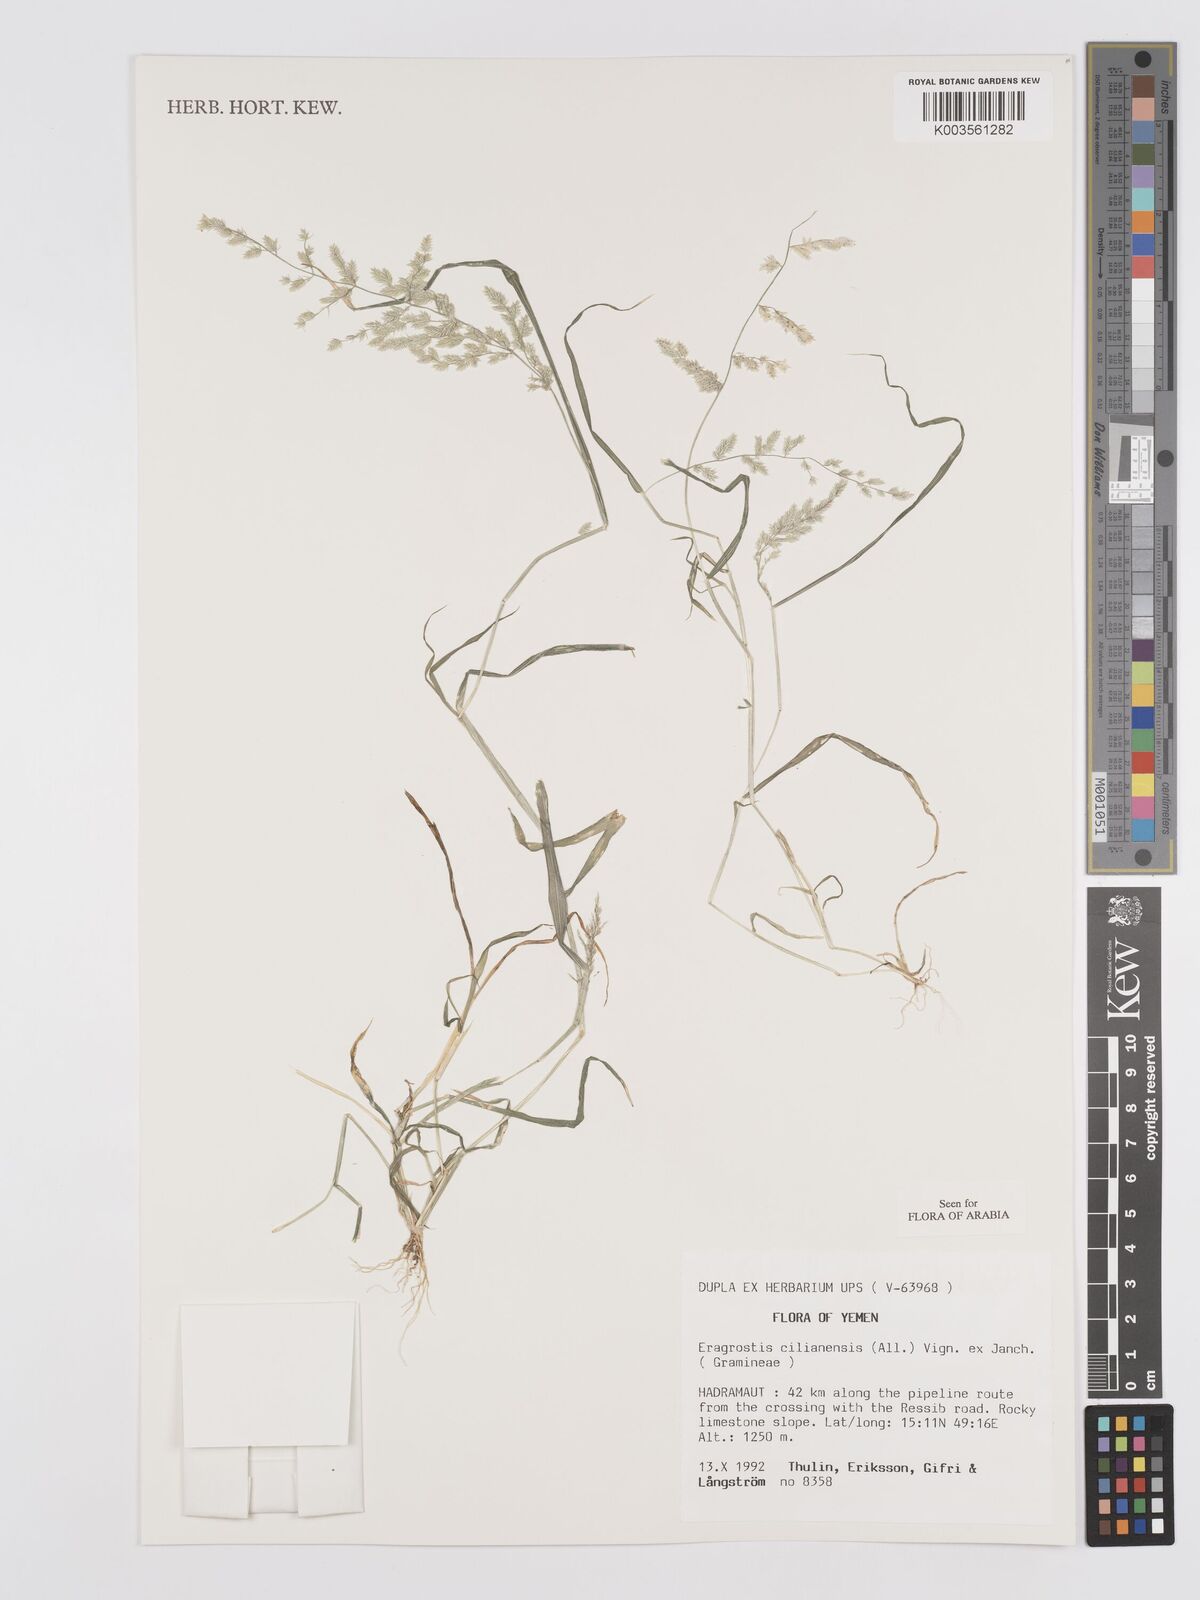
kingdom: Plantae
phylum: Tracheophyta
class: Liliopsida
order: Poales
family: Poaceae
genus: Eragrostis
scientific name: Eragrostis cilianensis
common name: Stinkgrass
